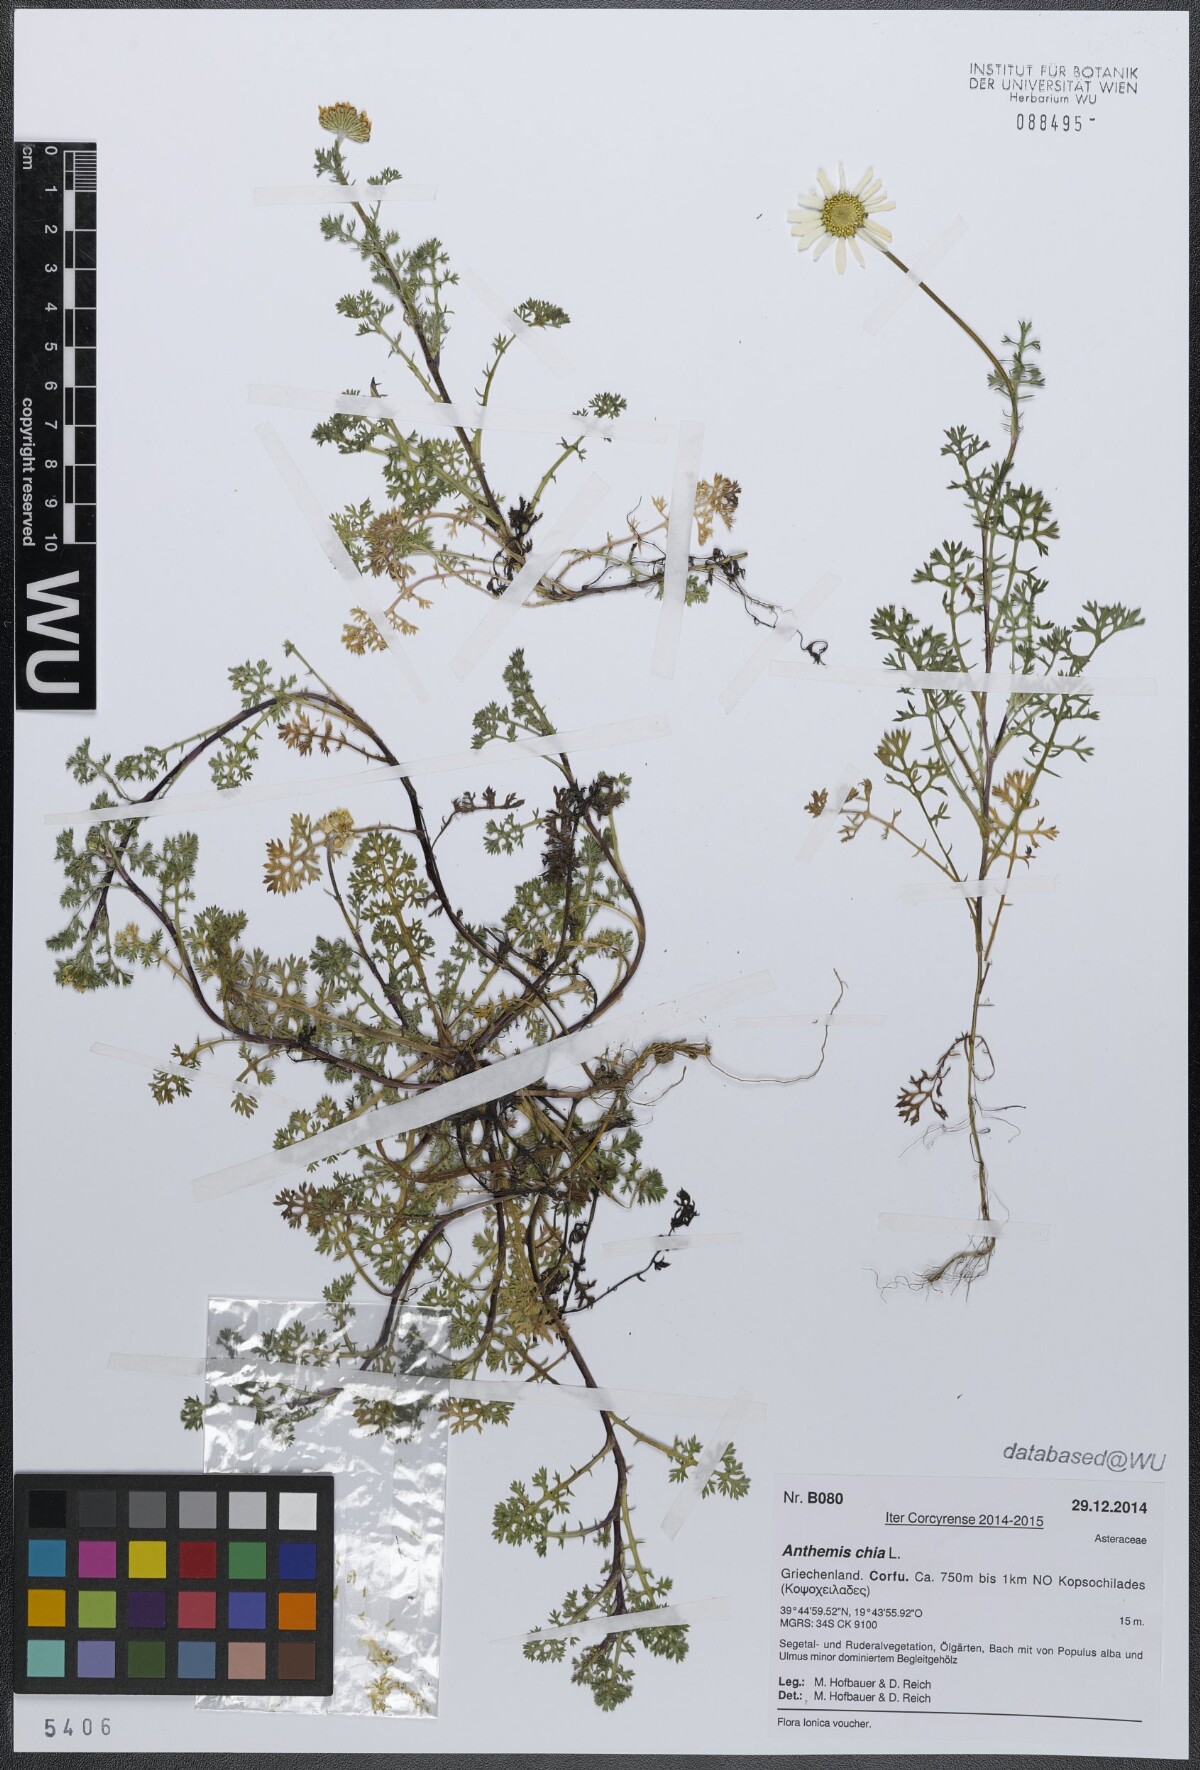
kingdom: Plantae
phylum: Tracheophyta
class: Magnoliopsida
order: Asterales
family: Asteraceae
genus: Anthemis
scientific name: Anthemis chia
